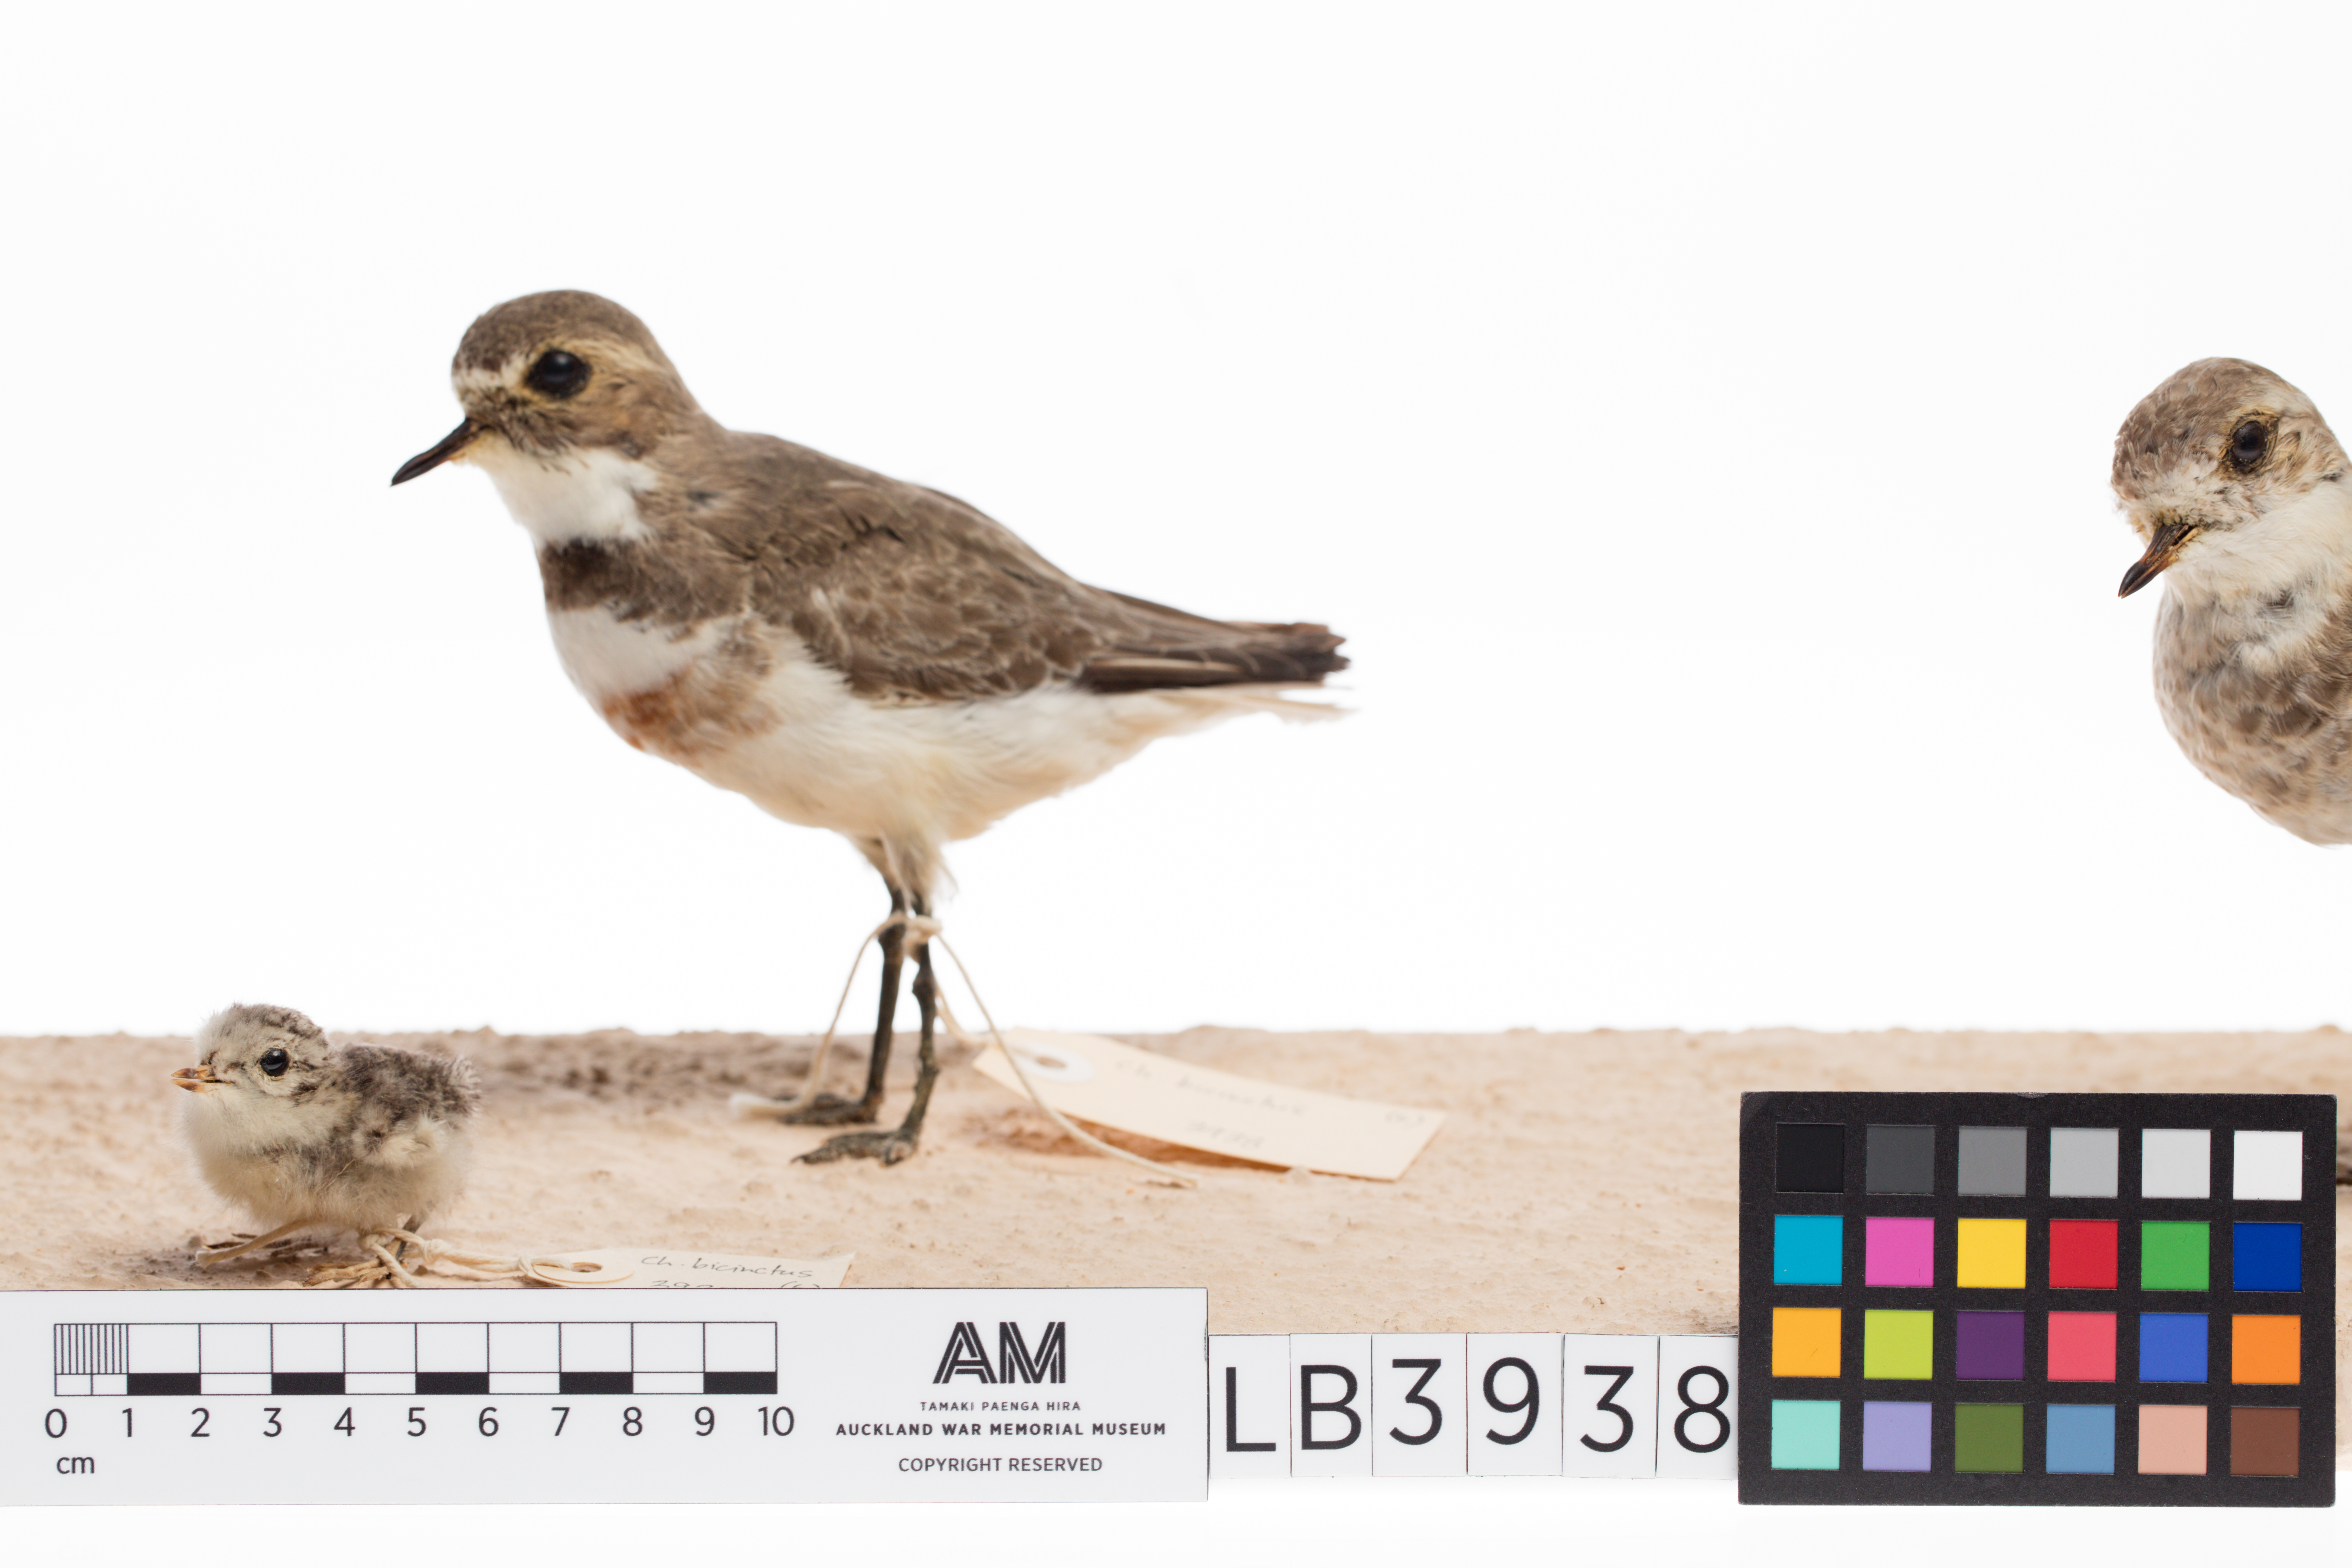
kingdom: Animalia
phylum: Chordata
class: Aves
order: Charadriiformes
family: Charadriidae
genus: Charadrius
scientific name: Charadrius bicinctus
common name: Double-banded plover
